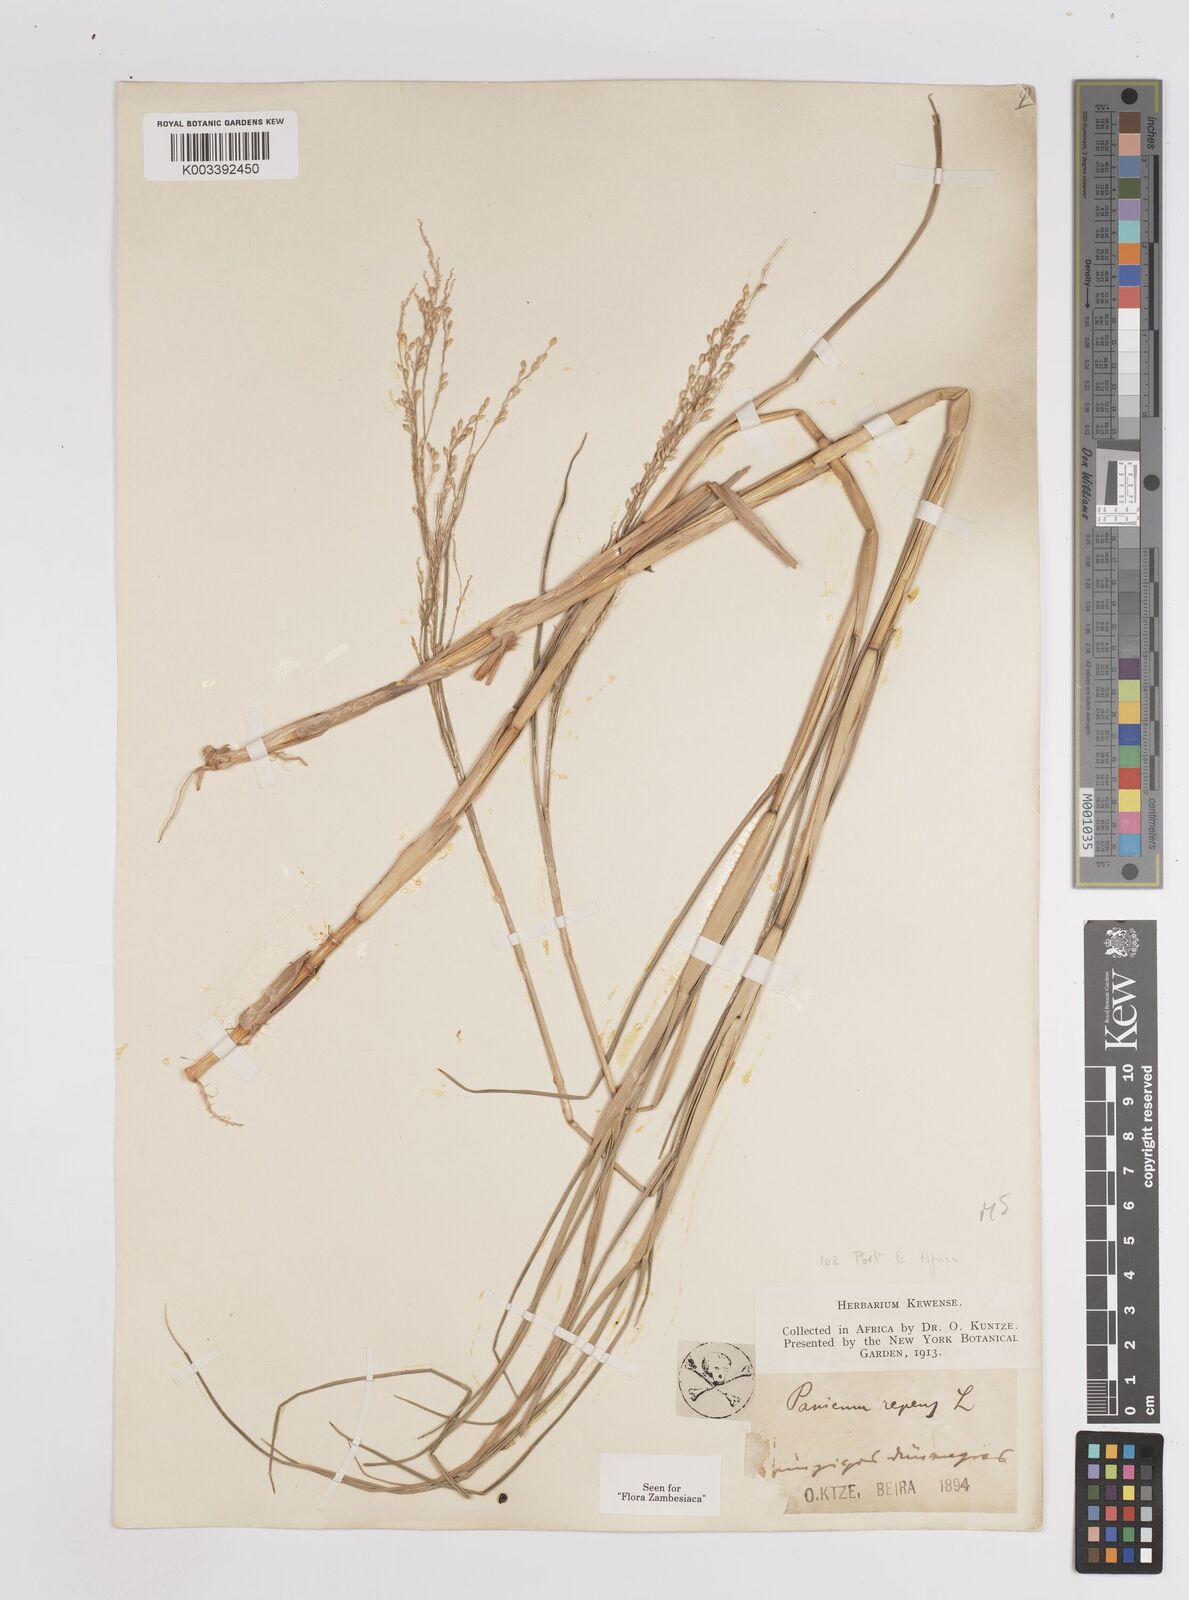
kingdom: Plantae
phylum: Tracheophyta
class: Liliopsida
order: Poales
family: Poaceae
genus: Panicum
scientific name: Panicum repens
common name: Torpedo grass
